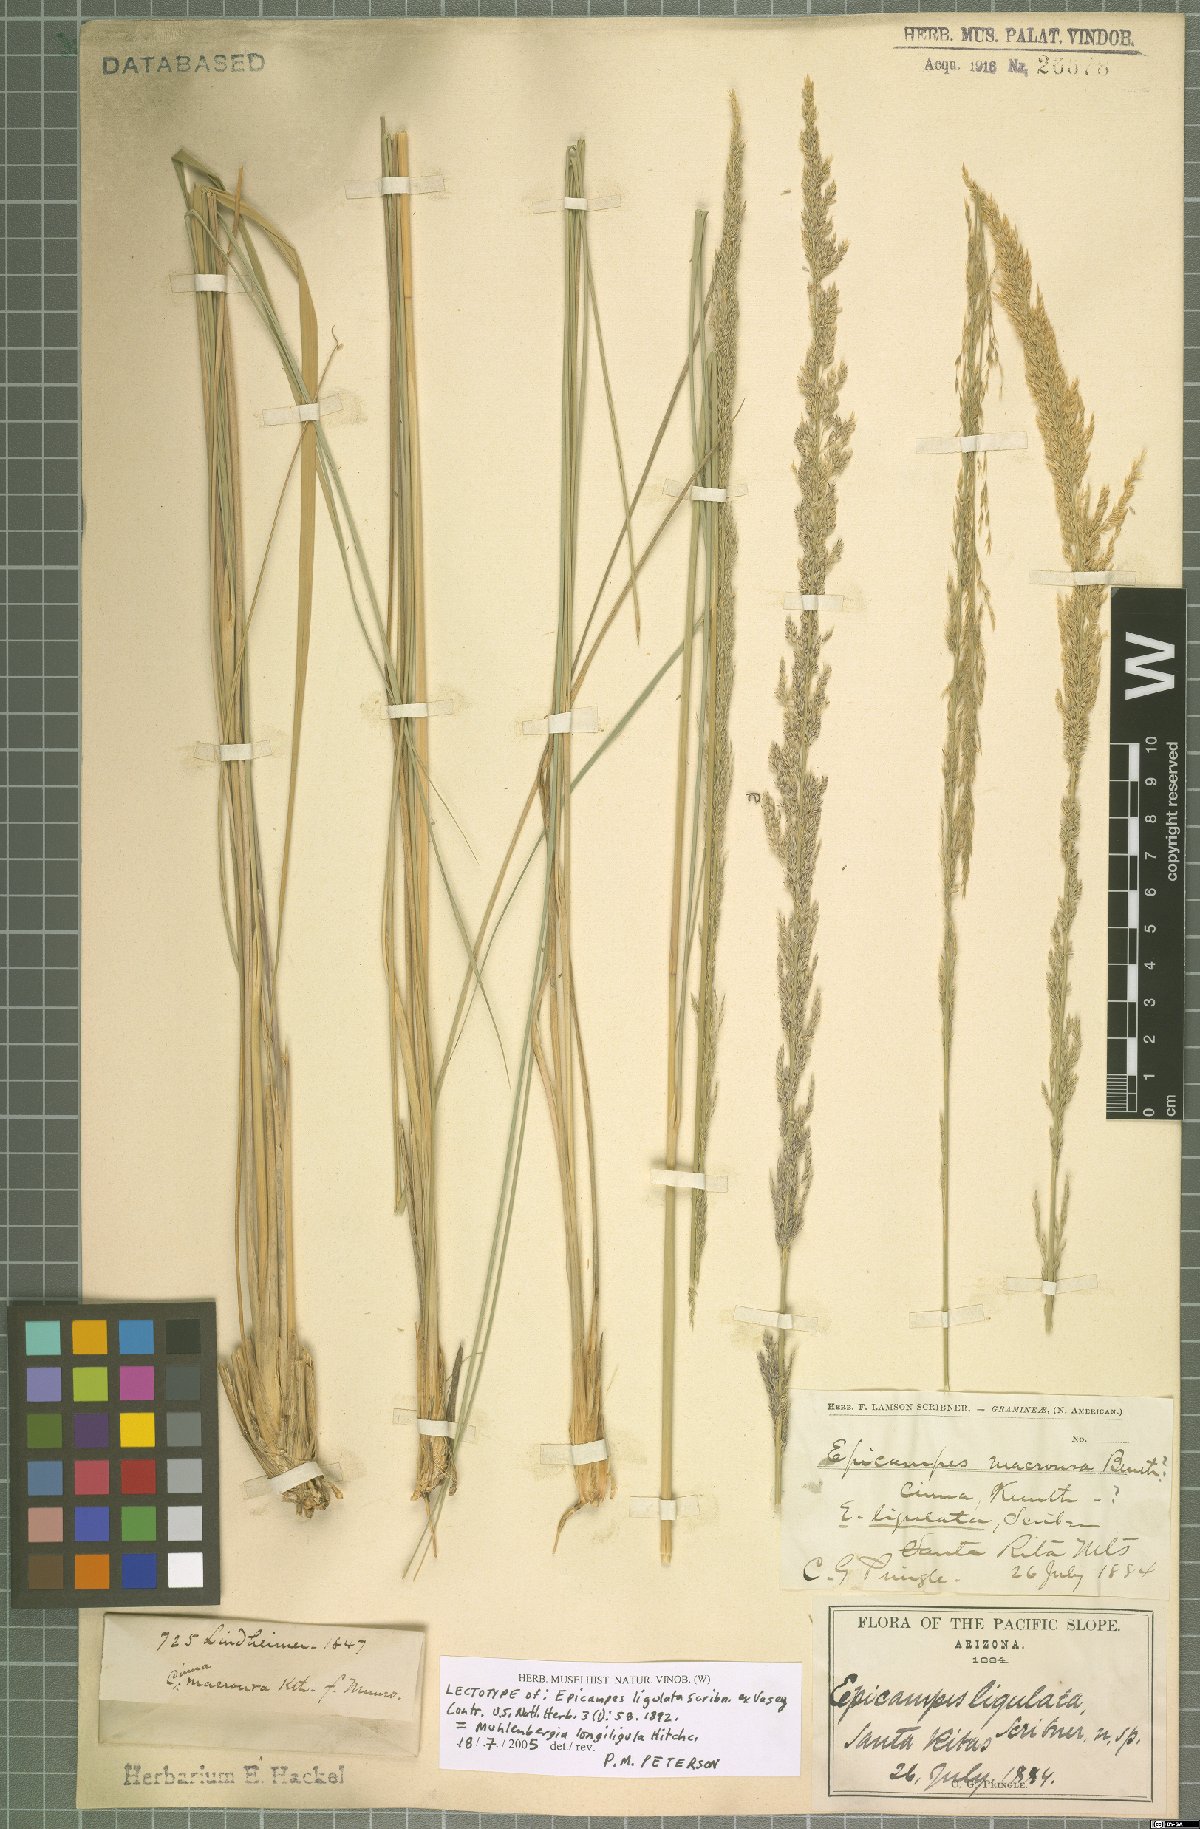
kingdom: Plantae
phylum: Tracheophyta
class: Liliopsida
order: Poales
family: Poaceae
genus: Muhlenbergia
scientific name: Muhlenbergia longiligula
